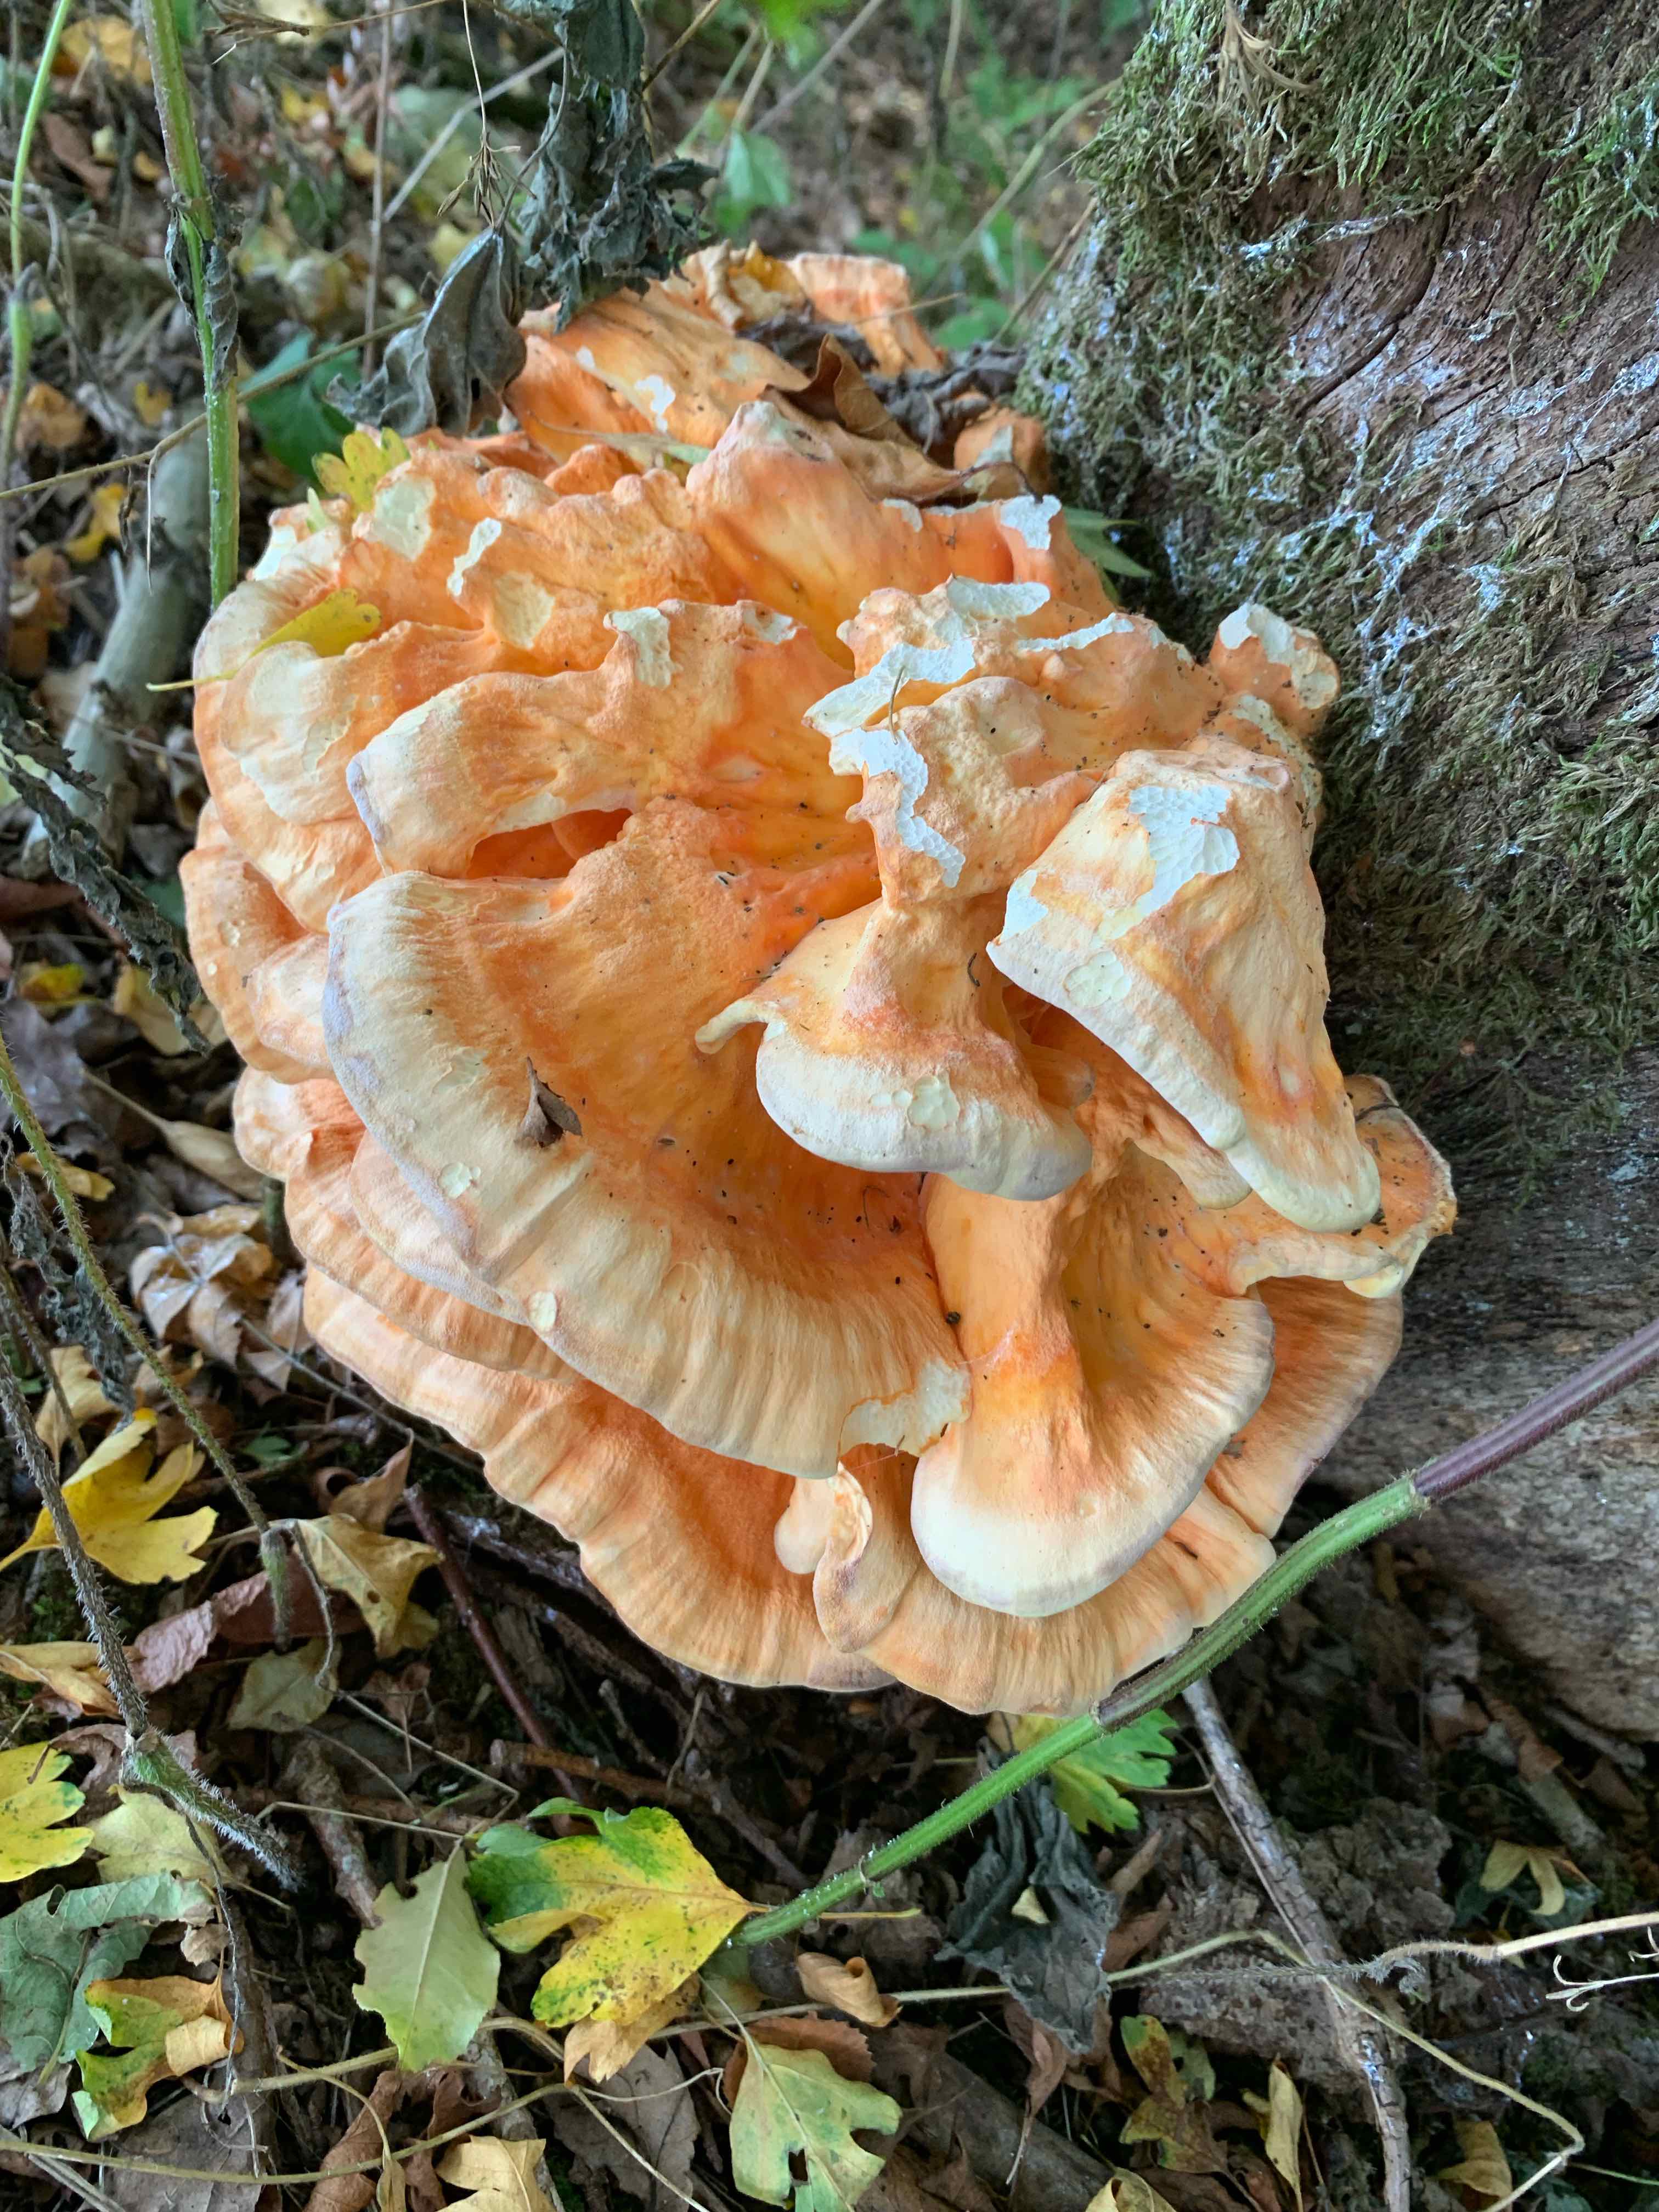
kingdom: Fungi
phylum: Basidiomycota
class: Agaricomycetes
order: Polyporales
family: Laetiporaceae
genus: Laetiporus
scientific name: Laetiporus sulphureus
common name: svovlporesvamp
